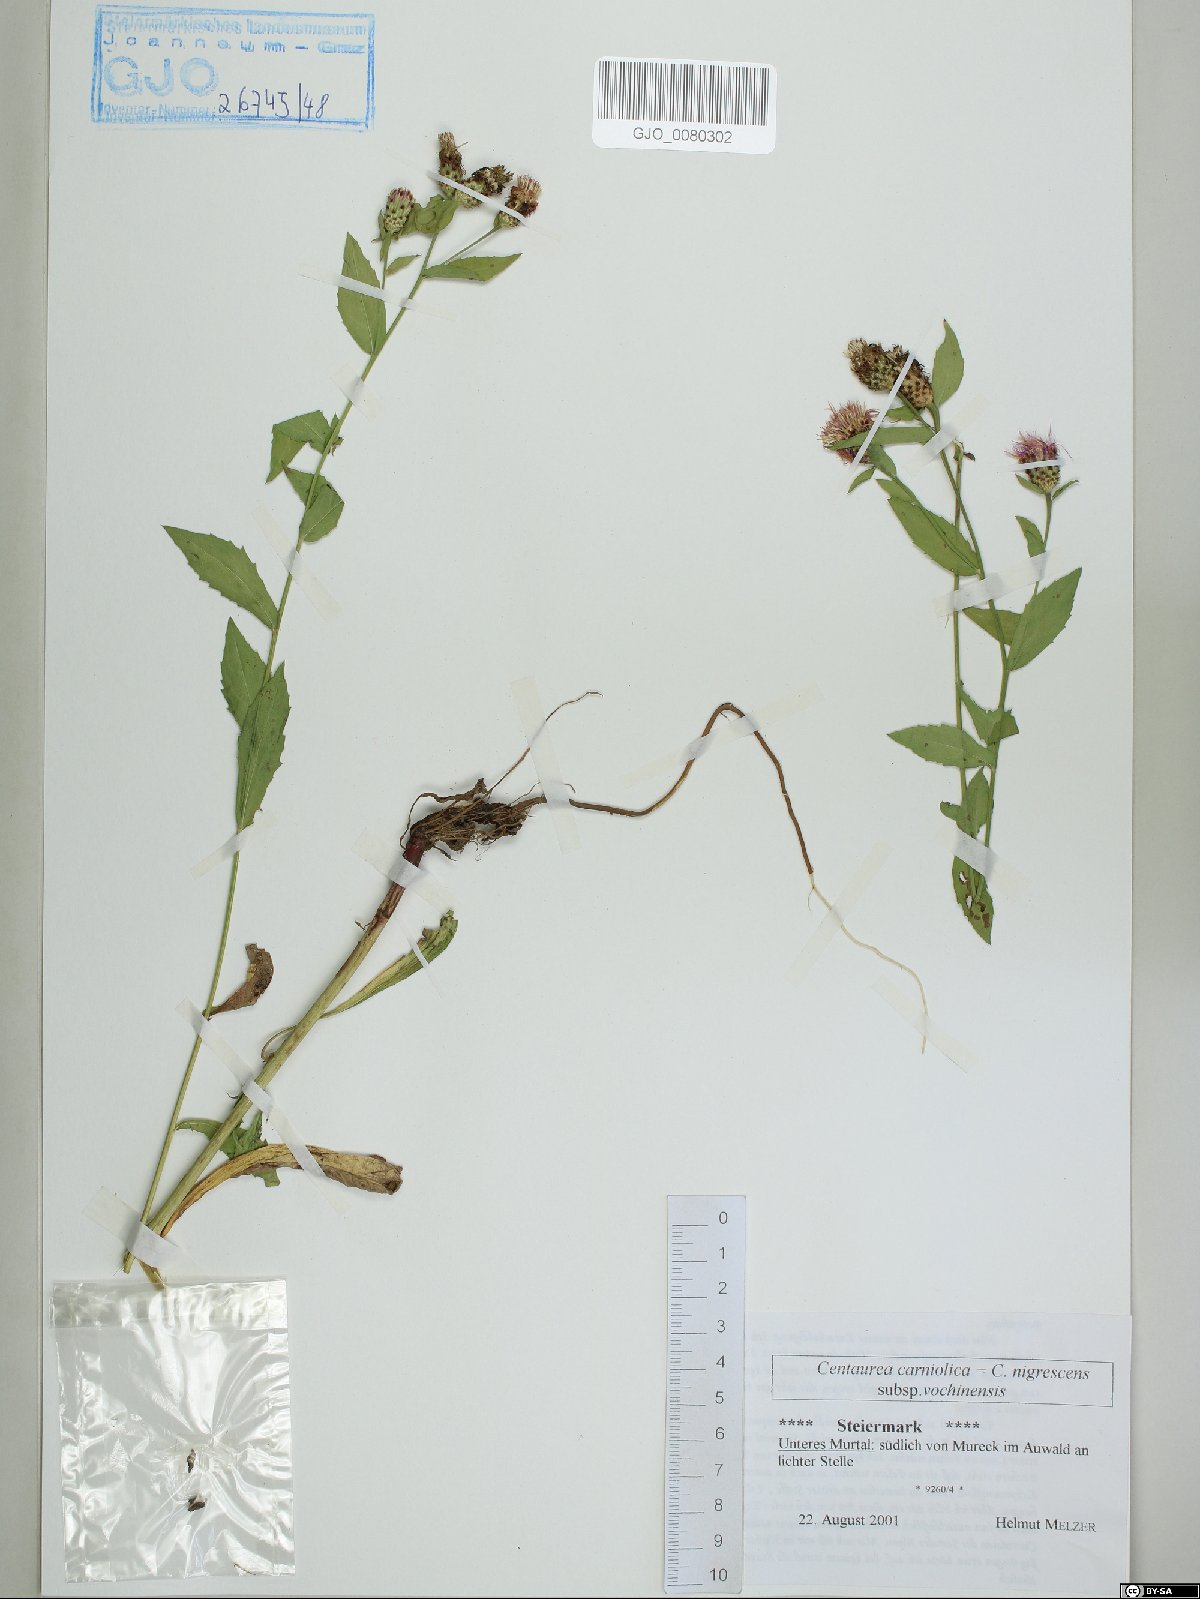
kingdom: Plantae
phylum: Tracheophyta
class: Magnoliopsida
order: Asterales
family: Asteraceae
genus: Centaurea
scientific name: Centaurea carniolica
